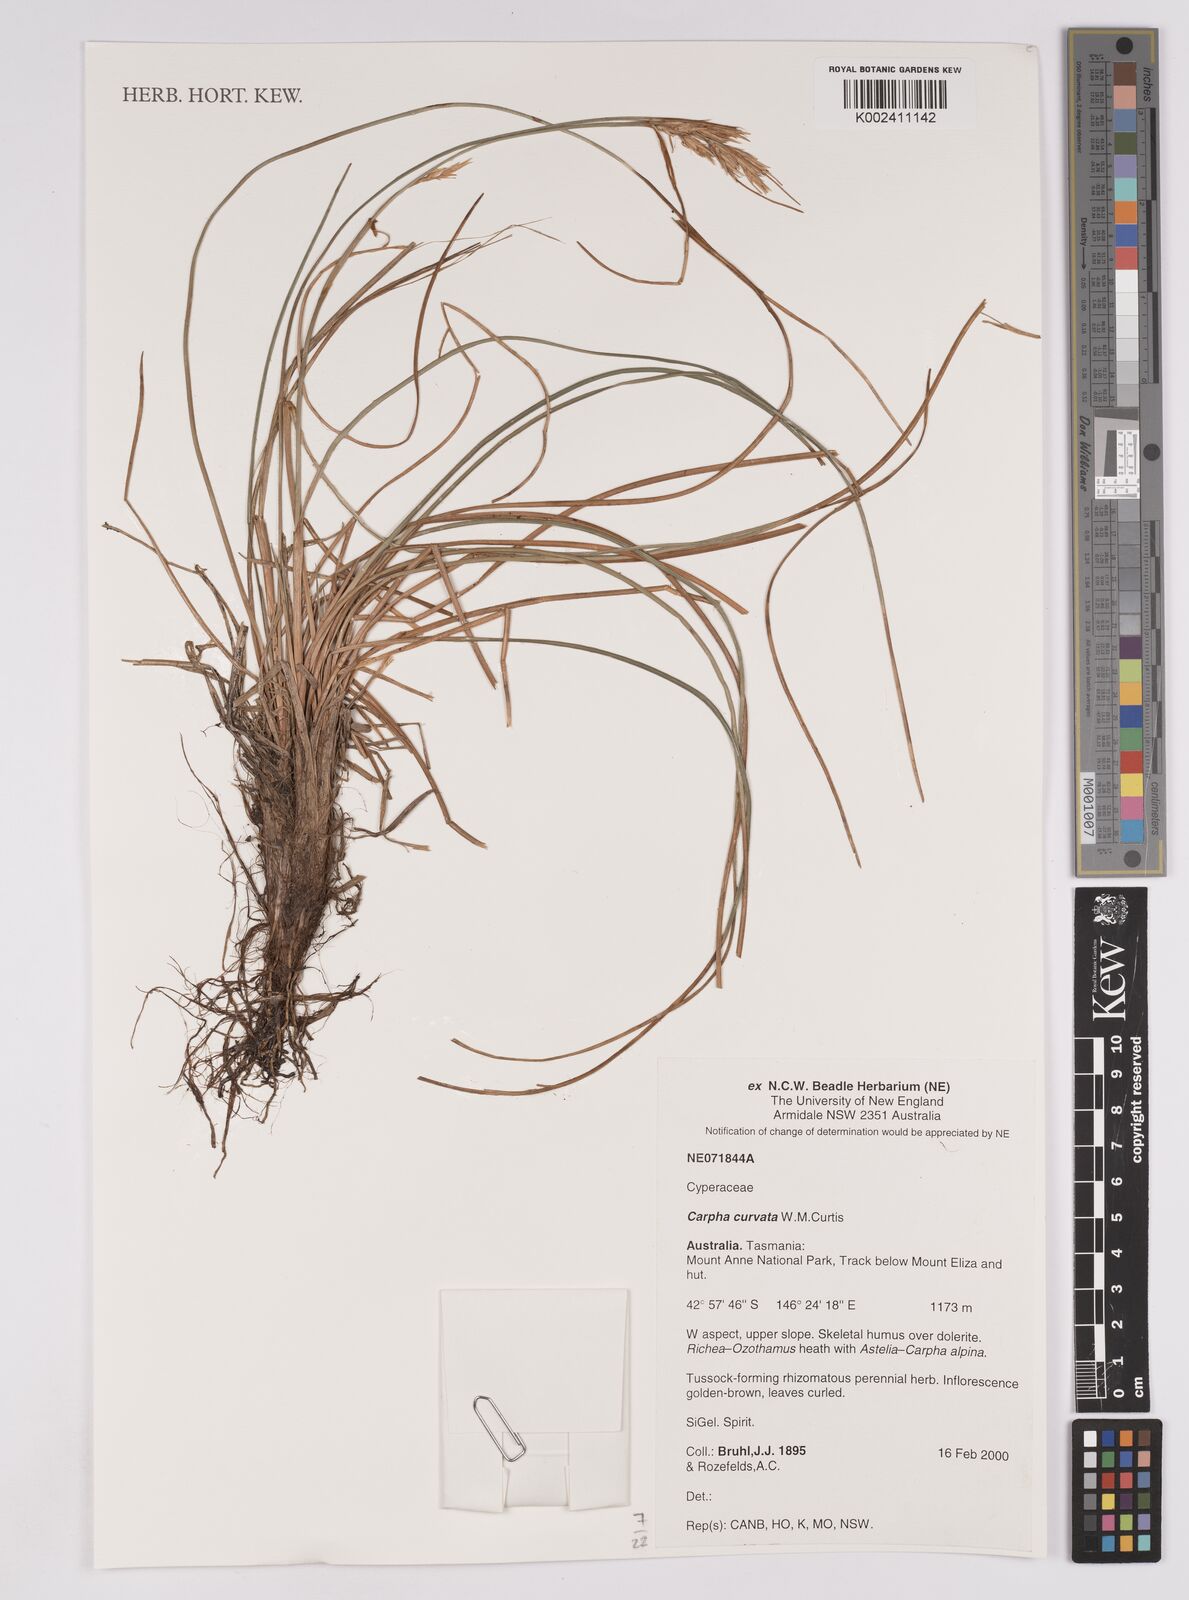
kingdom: Plantae
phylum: Tracheophyta
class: Liliopsida
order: Poales
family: Cyperaceae
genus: Carpha
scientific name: Carpha curvata
